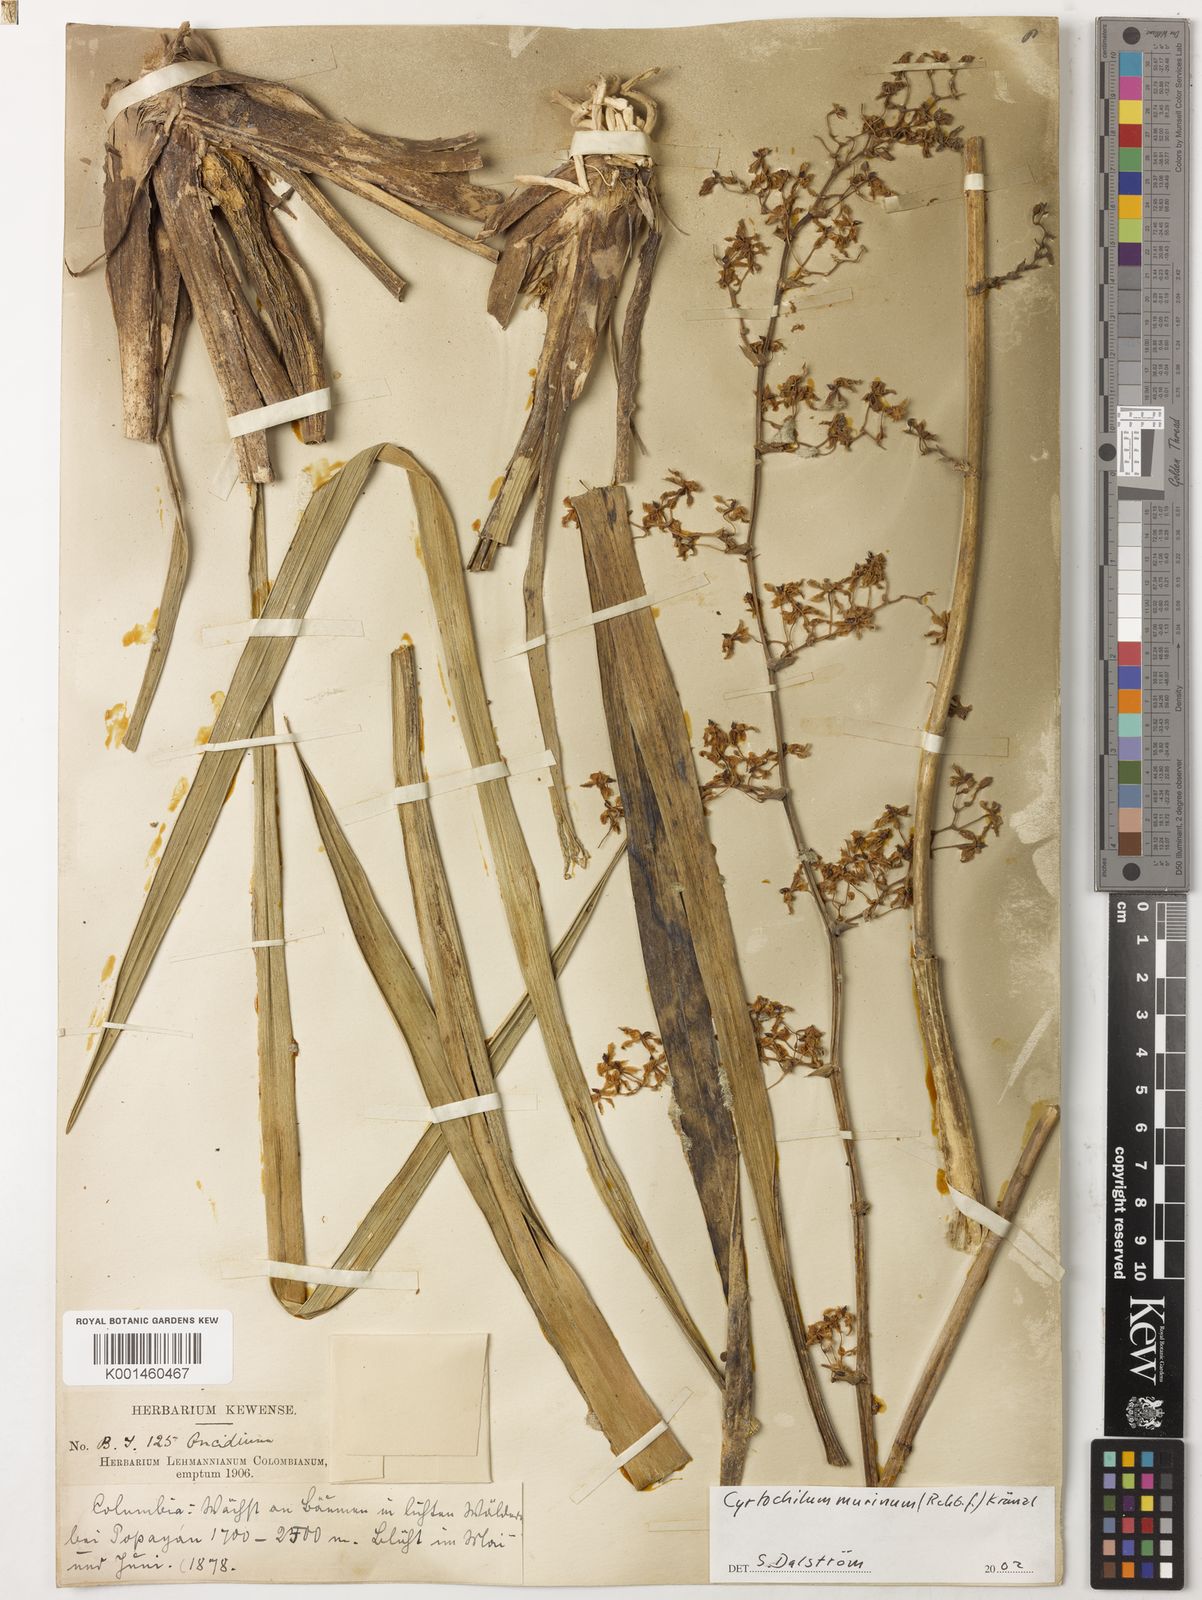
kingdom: Plantae
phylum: Tracheophyta
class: Liliopsida
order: Asparagales
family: Orchidaceae
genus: Cyrtochilum
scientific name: Cyrtochilum murinum
